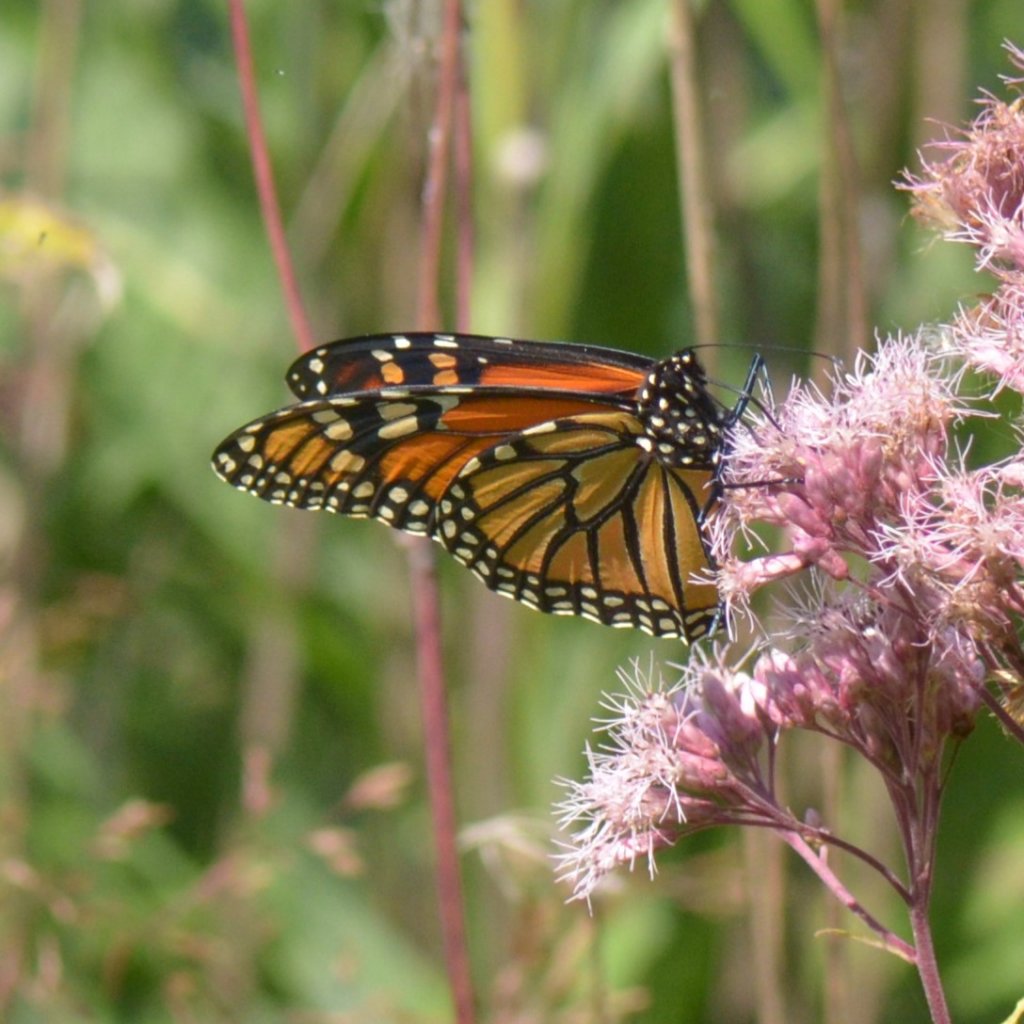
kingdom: Animalia
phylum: Arthropoda
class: Insecta
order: Lepidoptera
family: Nymphalidae
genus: Danaus
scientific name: Danaus plexippus
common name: Monarch
